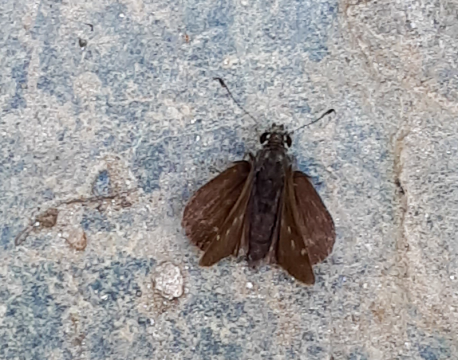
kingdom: Animalia
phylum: Arthropoda
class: Insecta
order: Lepidoptera
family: Hesperiidae
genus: Euphyes
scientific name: Euphyes vestris
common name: Dun Skipper
